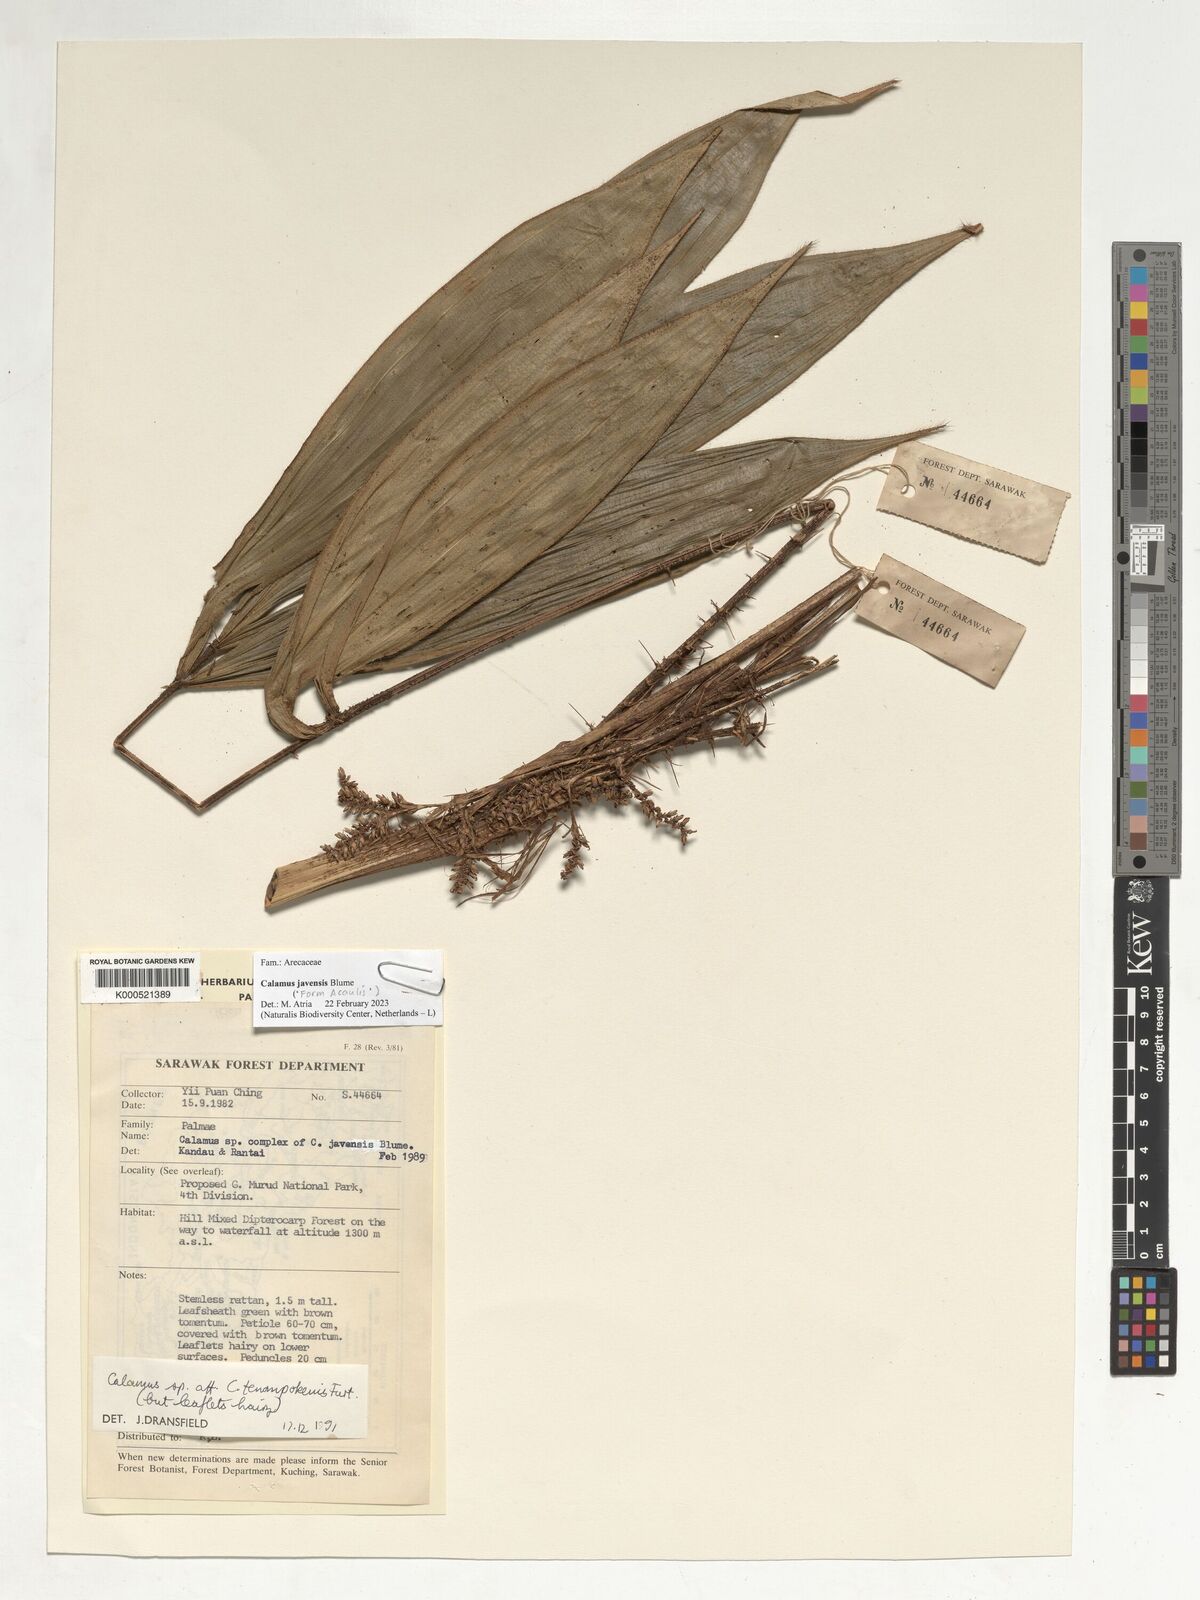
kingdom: Plantae
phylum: Tracheophyta
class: Liliopsida
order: Arecales
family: Arecaceae
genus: Calamus
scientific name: Calamus javensis
